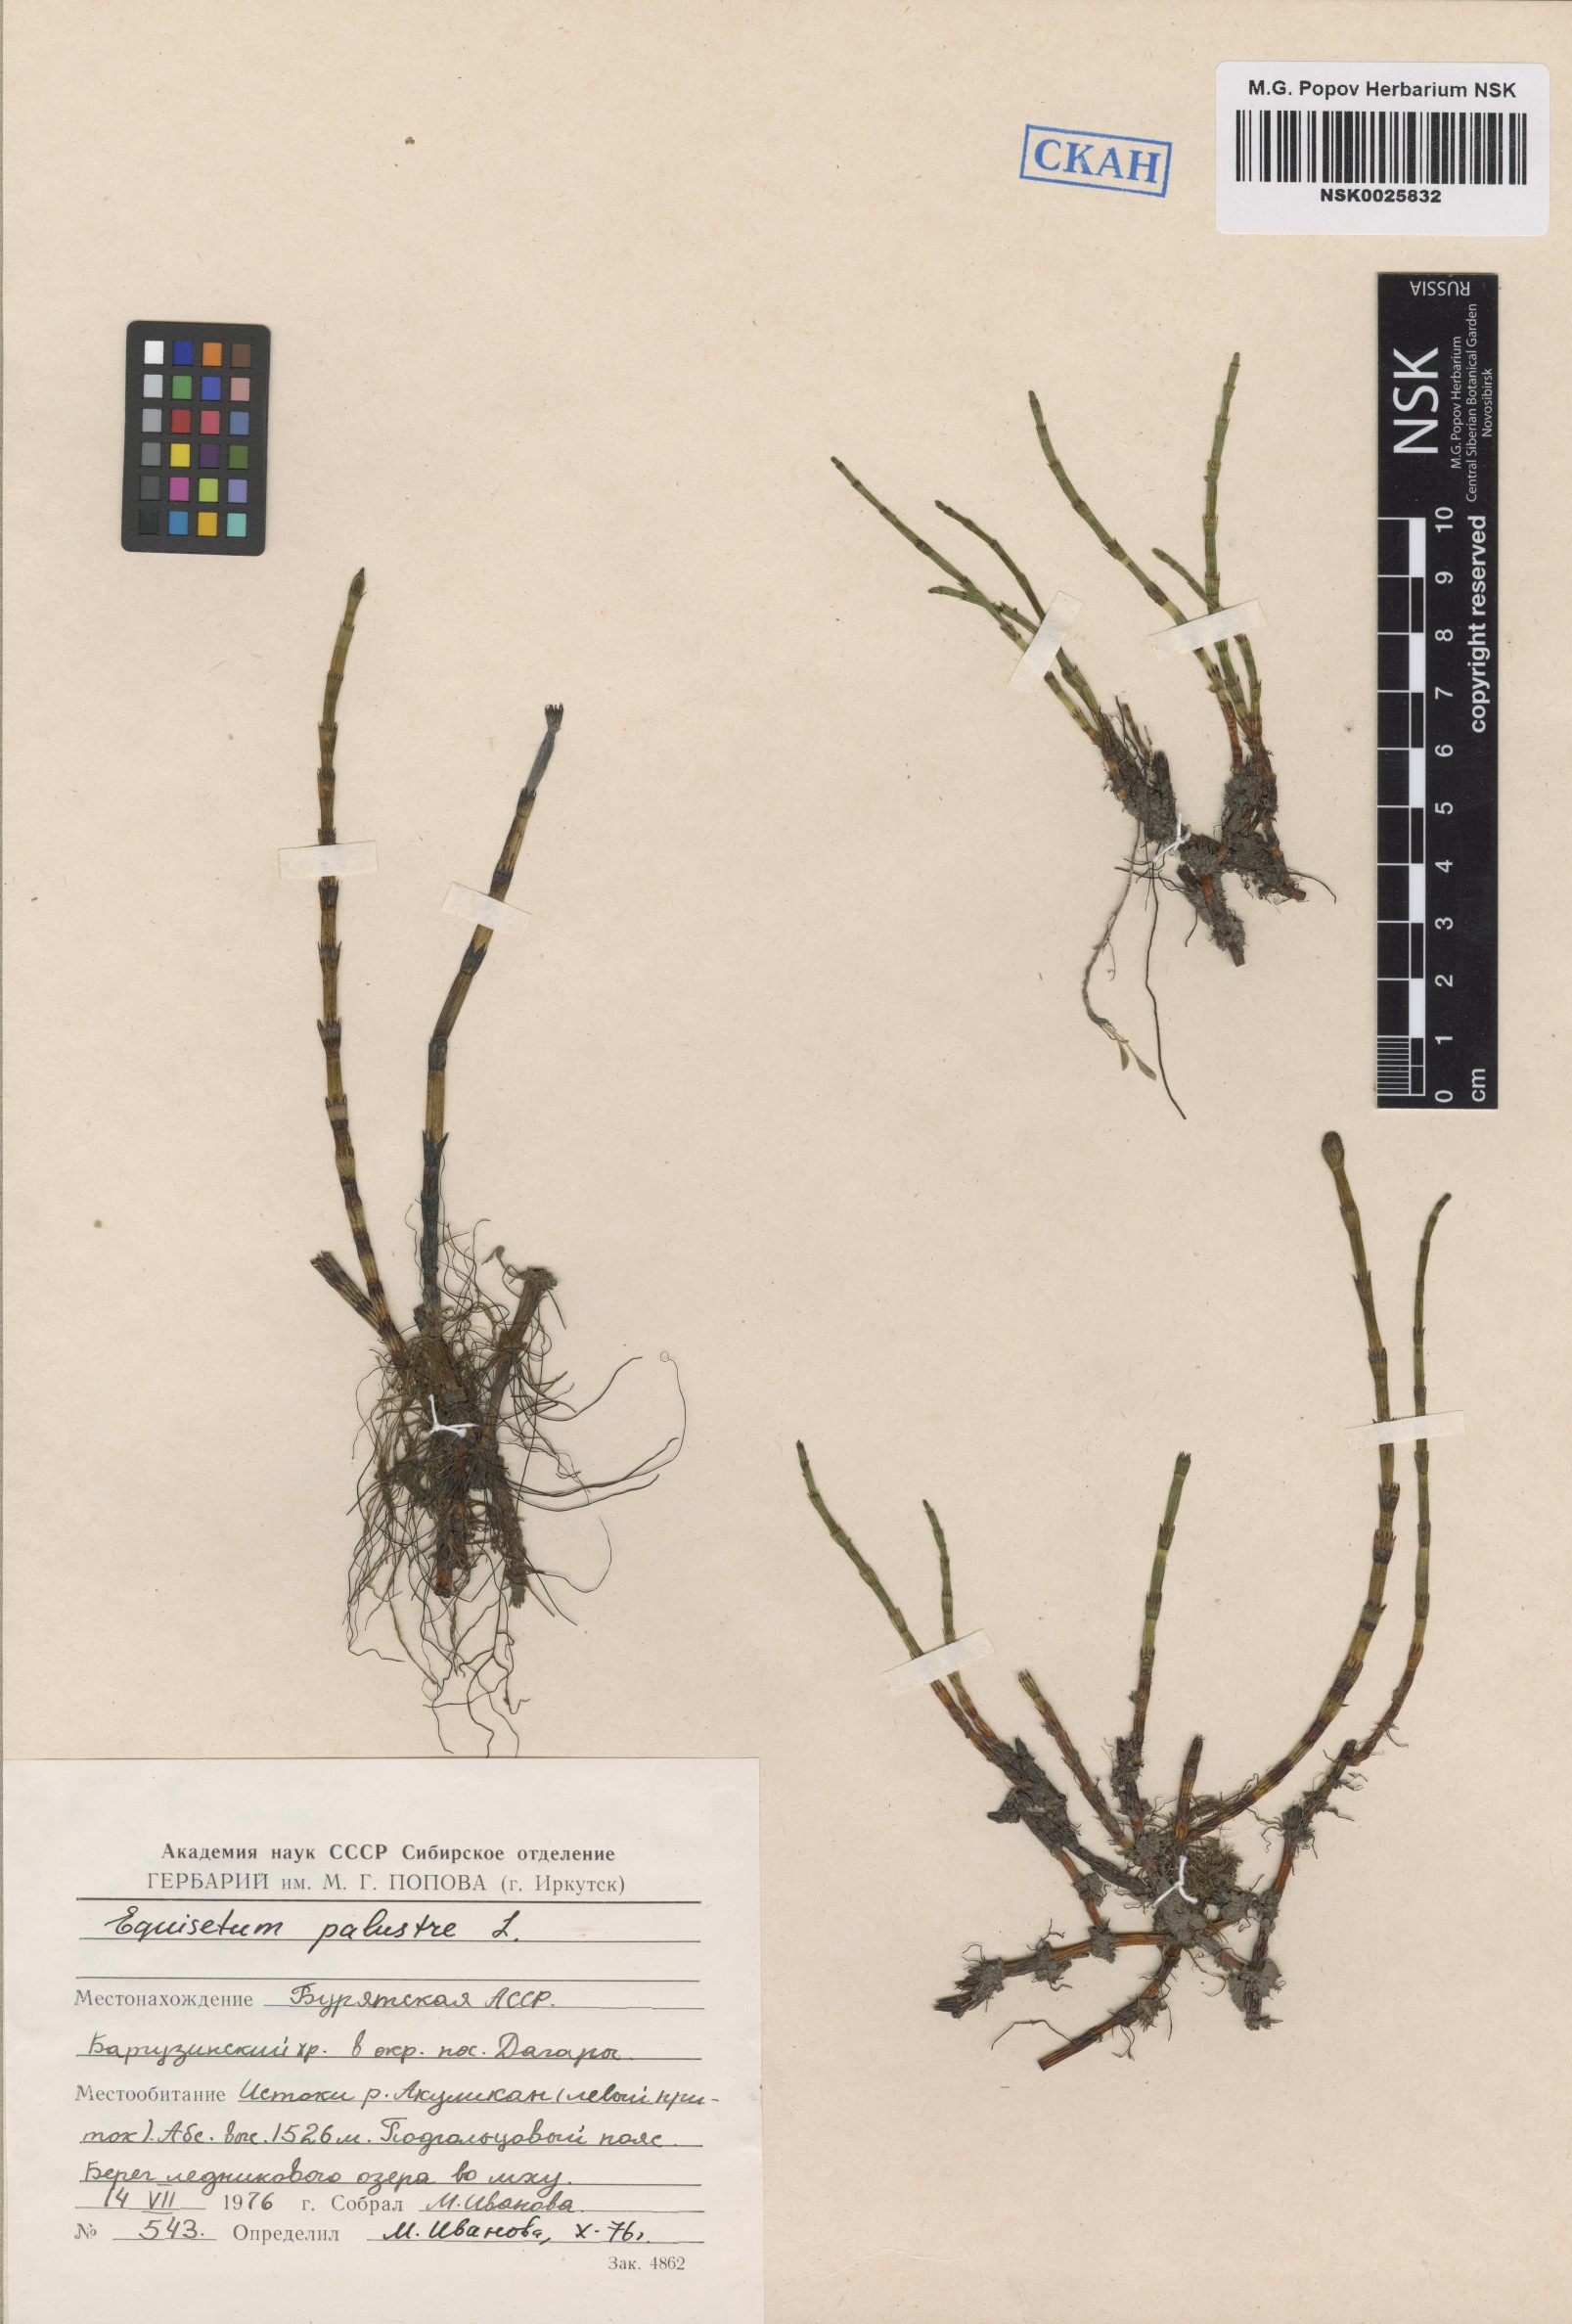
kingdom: Plantae
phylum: Tracheophyta
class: Polypodiopsida
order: Equisetales
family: Equisetaceae
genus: Equisetum
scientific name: Equisetum palustre
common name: Marsh horsetail
